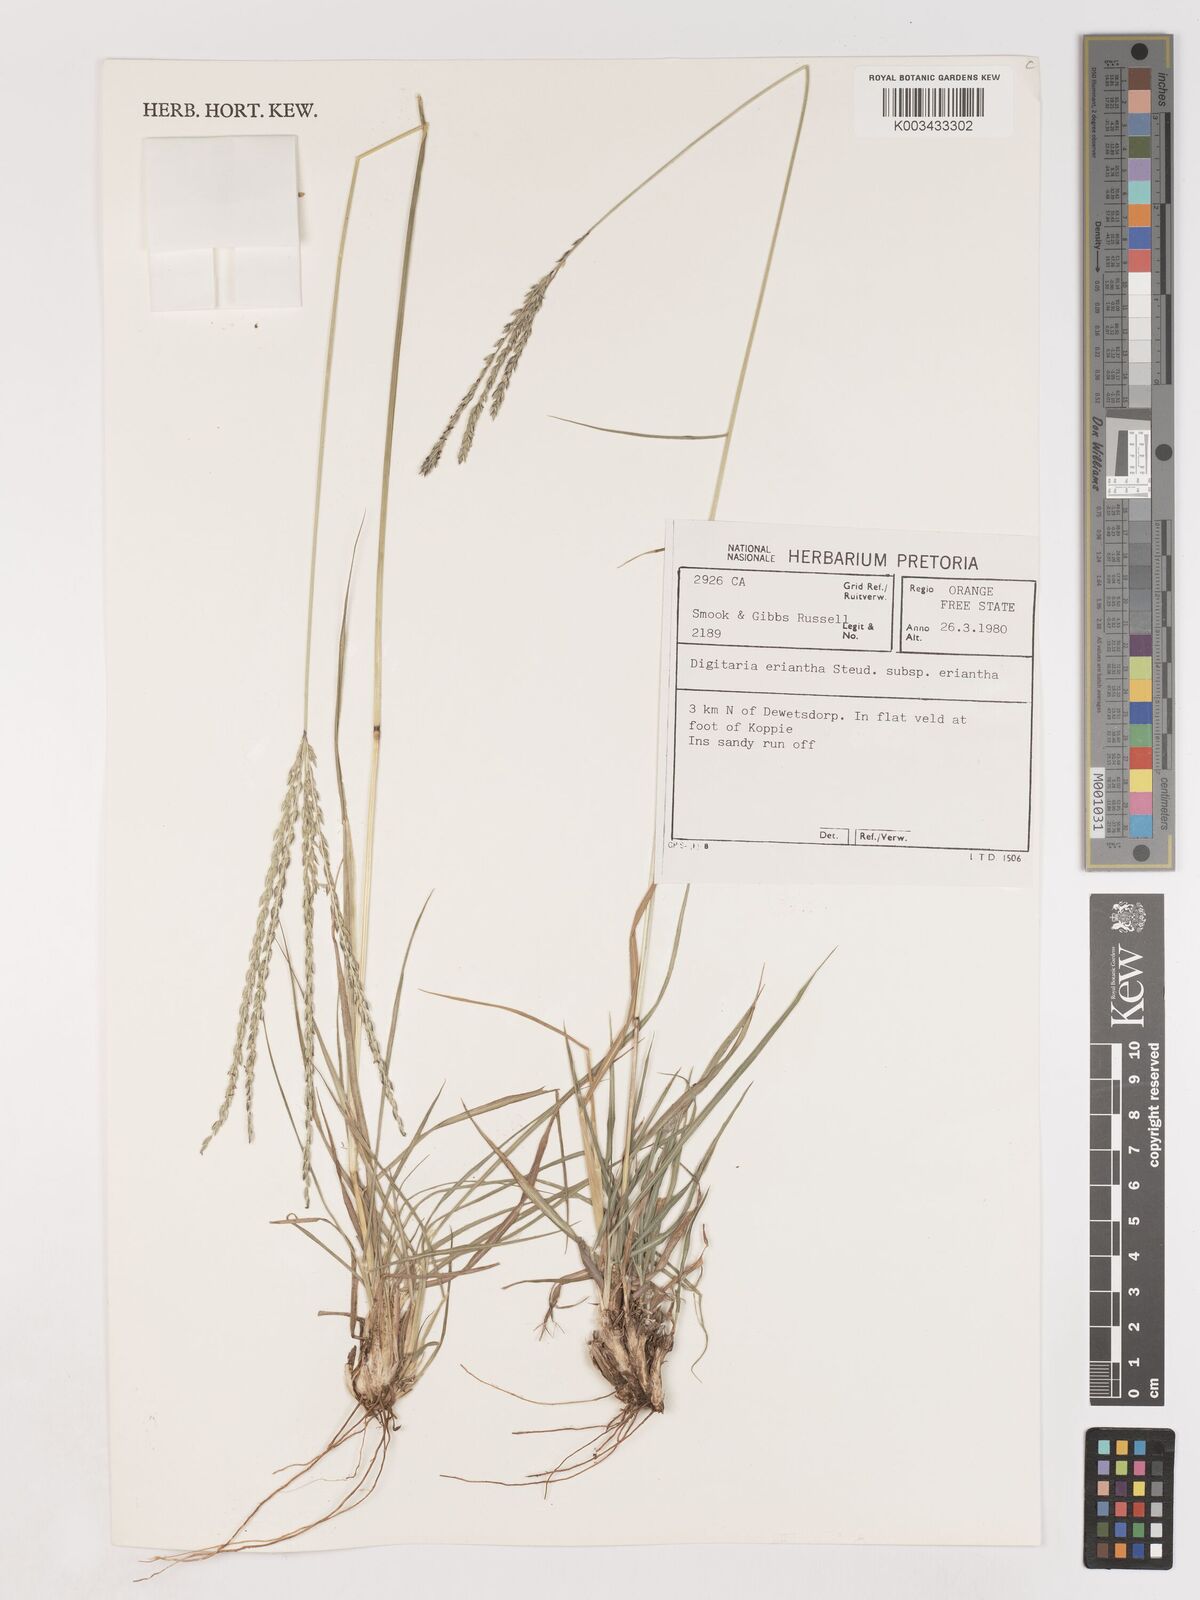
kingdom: Plantae
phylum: Tracheophyta
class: Liliopsida
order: Poales
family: Poaceae
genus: Digitaria
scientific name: Digitaria eriantha
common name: Digitgrass
